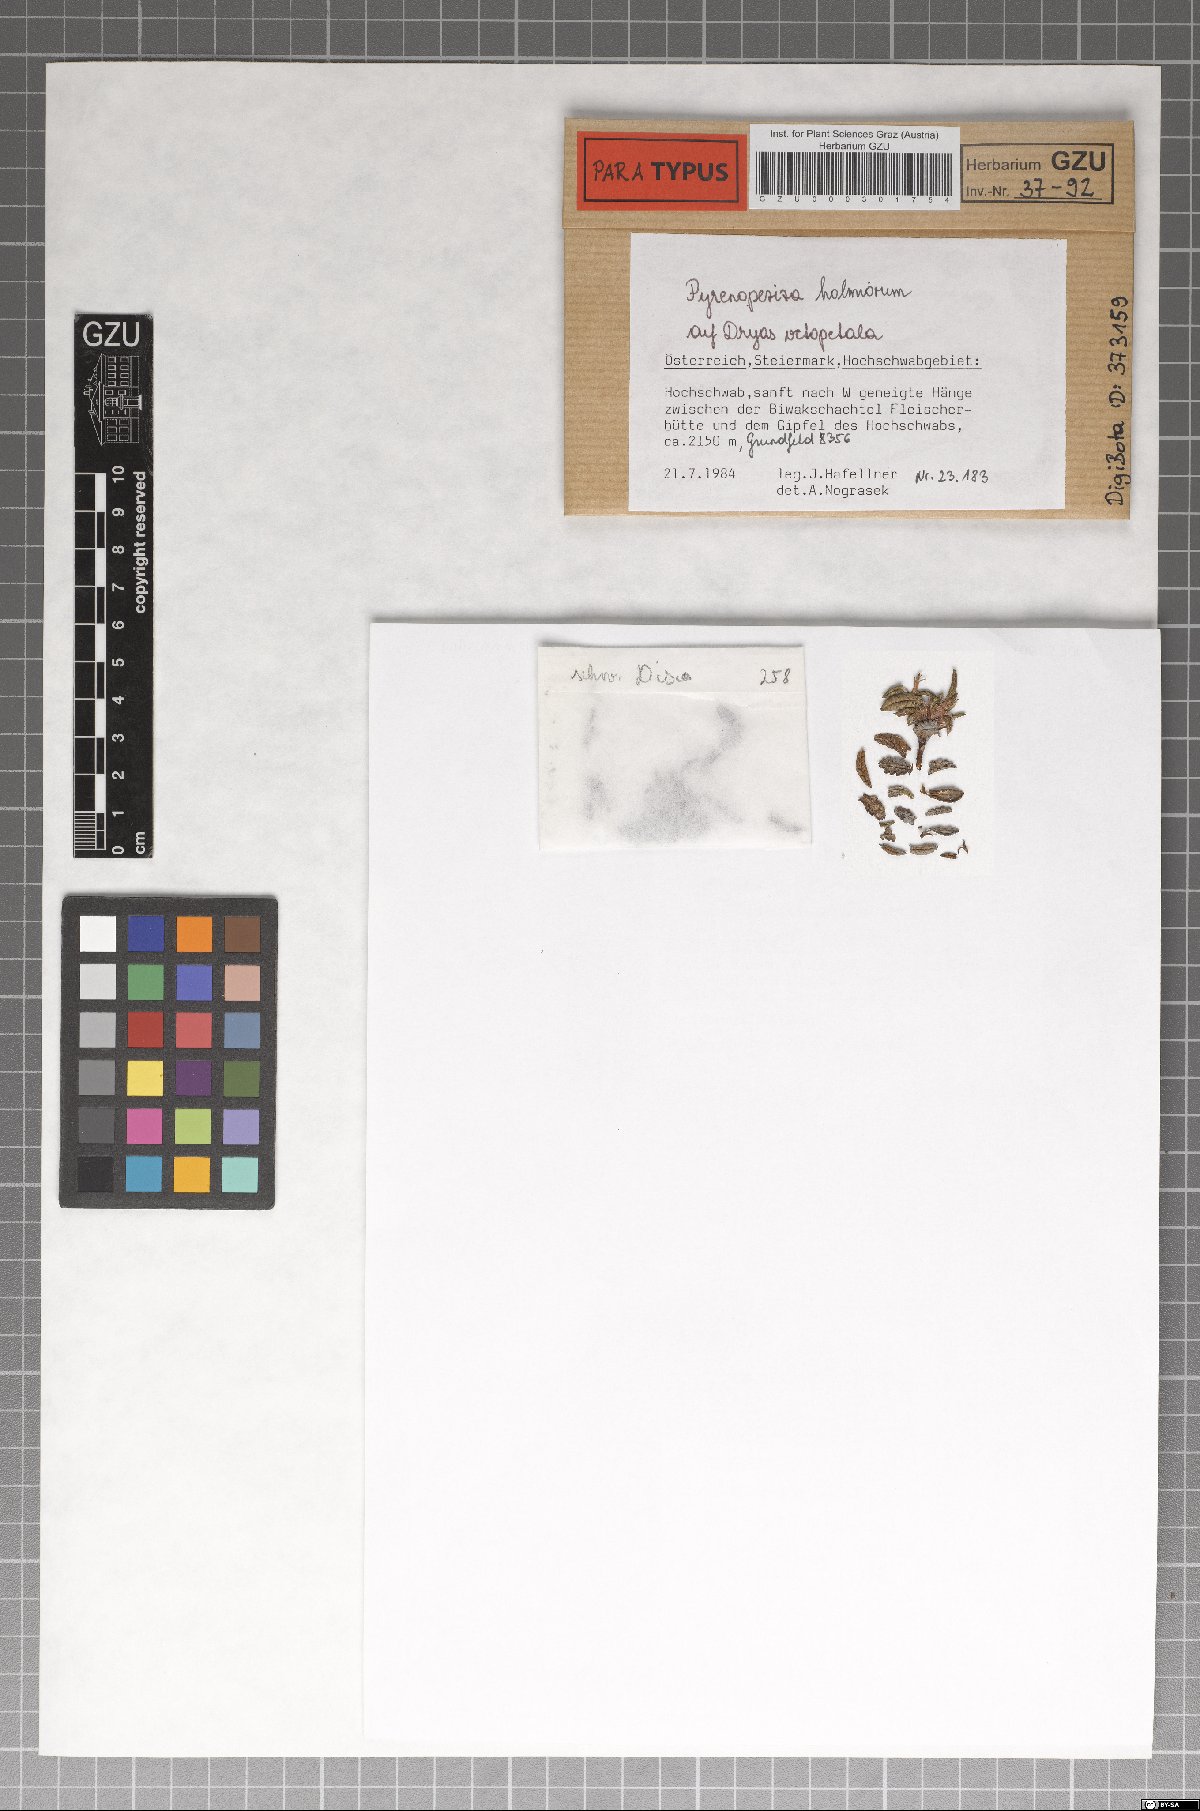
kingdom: Fungi
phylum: Ascomycota
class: Leotiomycetes
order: Helotiales
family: Ploettnerulaceae
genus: Pyrenopeziza
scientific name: Pyrenopeziza holmiorum
